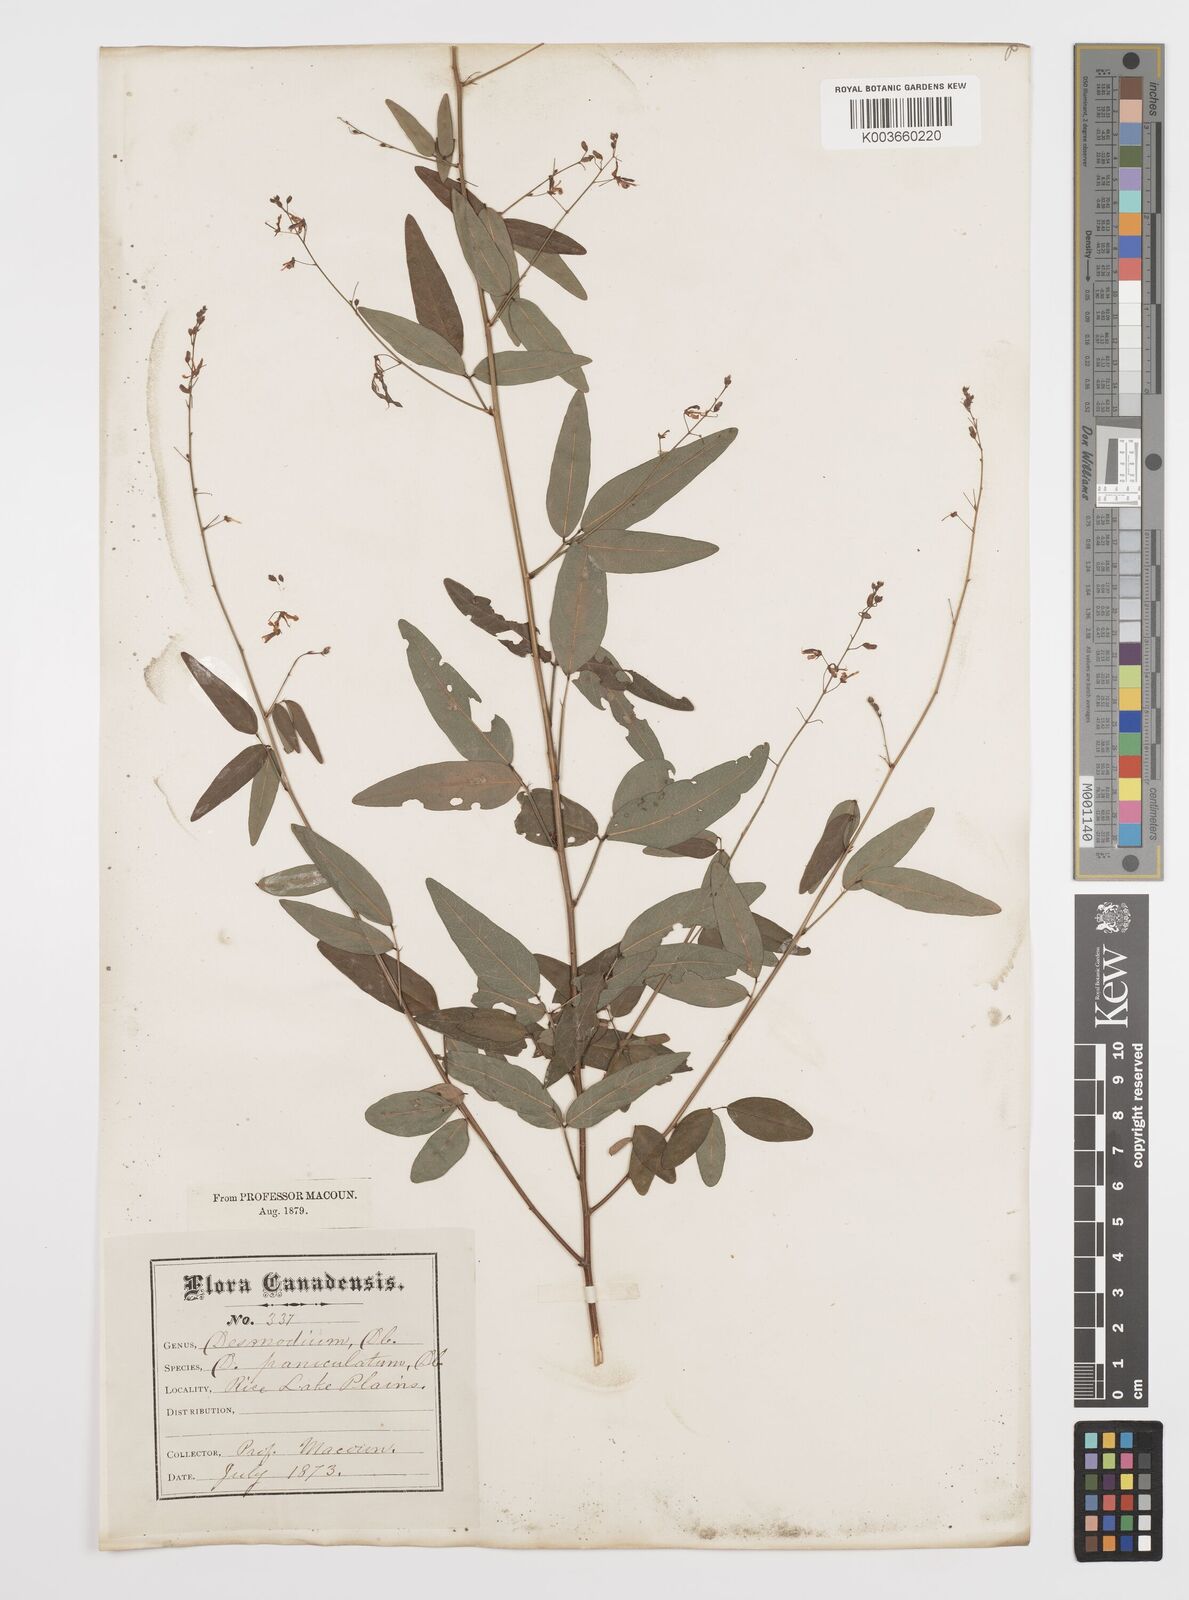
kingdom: Plantae
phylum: Tracheophyta
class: Magnoliopsida
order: Fabales
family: Fabaceae
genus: Desmodium
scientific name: Desmodium paniculatum
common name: Panicled tick-clover
